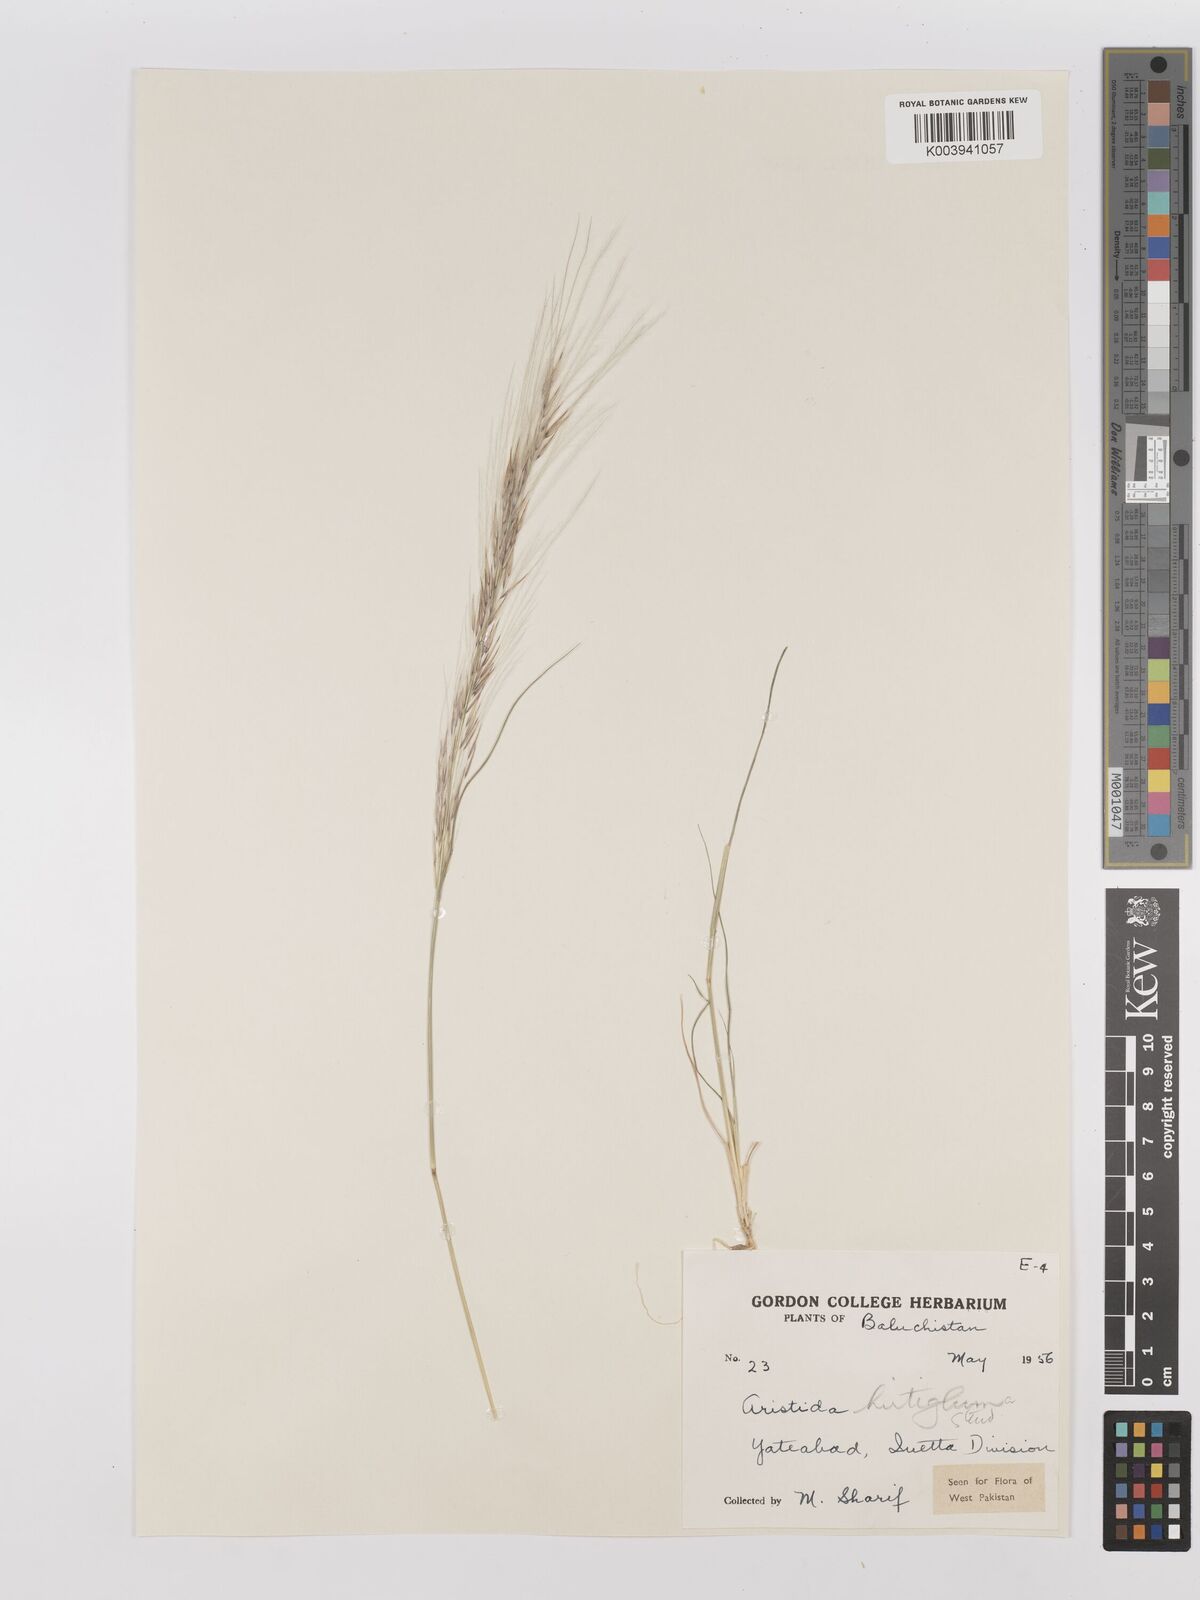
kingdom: Plantae
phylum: Tracheophyta
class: Liliopsida
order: Poales
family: Poaceae
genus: Stipagrostis
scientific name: Stipagrostis hirtigluma
